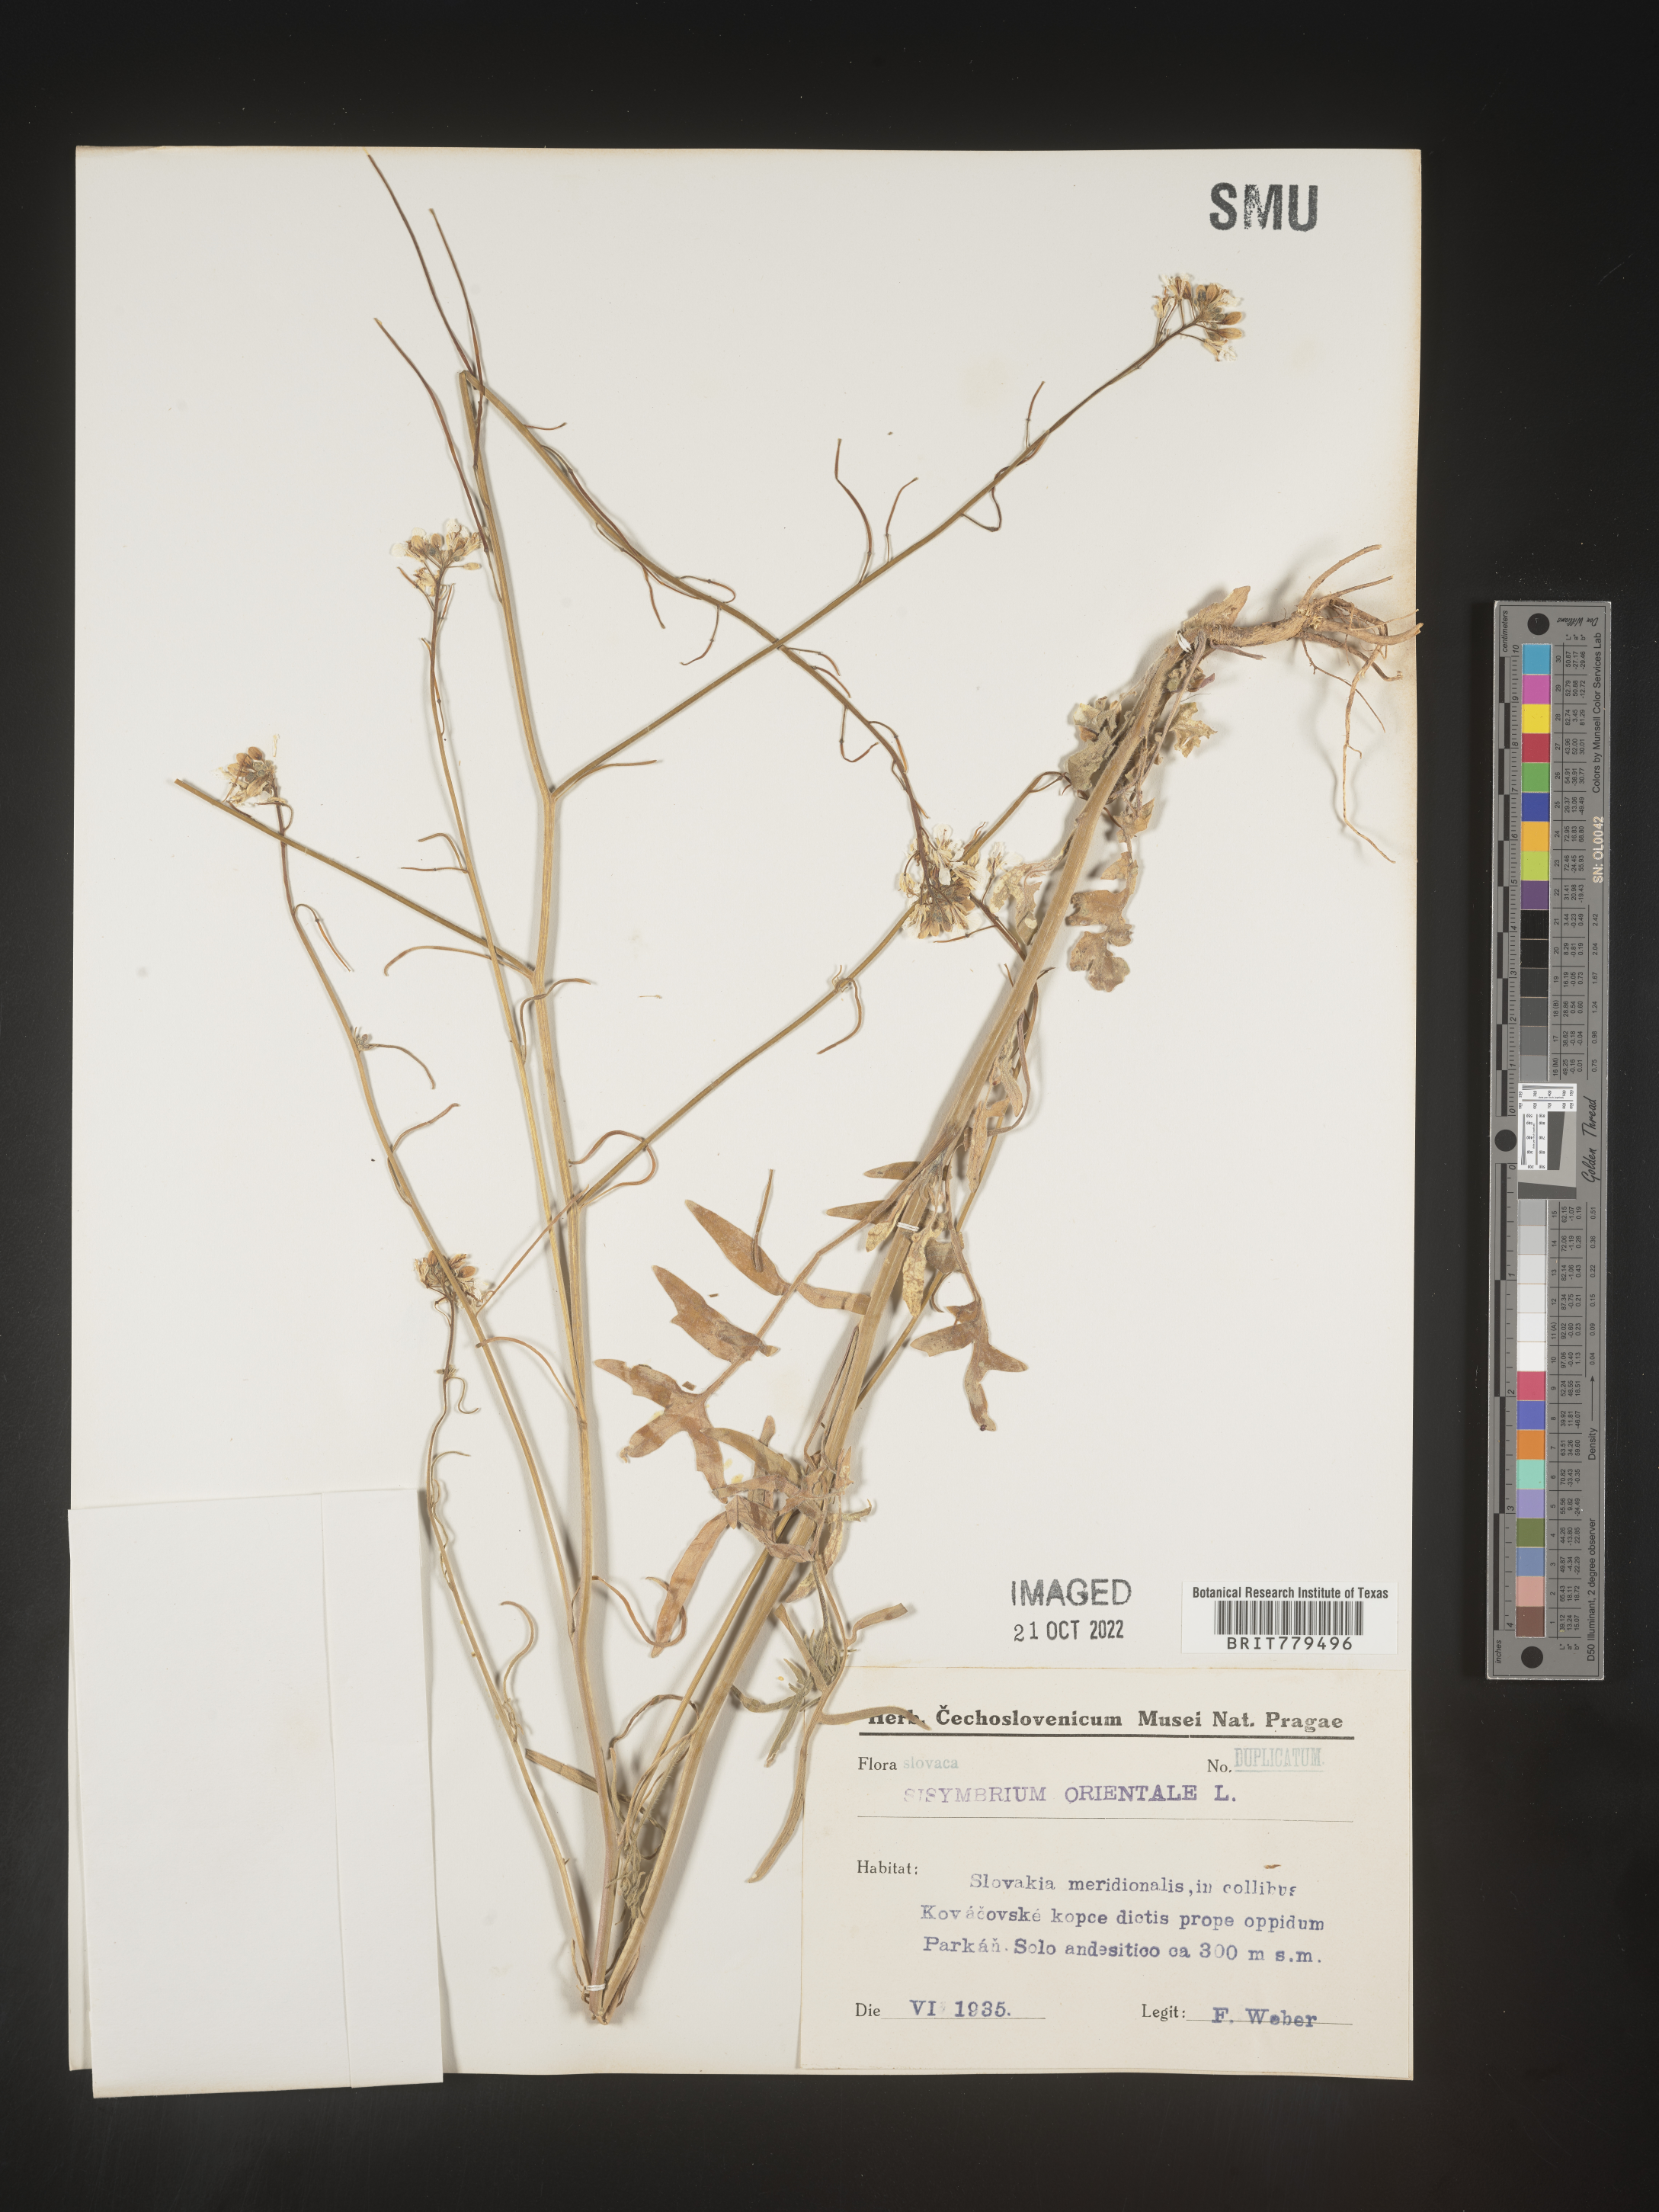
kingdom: Plantae
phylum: Tracheophyta
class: Magnoliopsida
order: Brassicales
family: Brassicaceae
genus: Sisymbrium
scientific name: Sisymbrium
